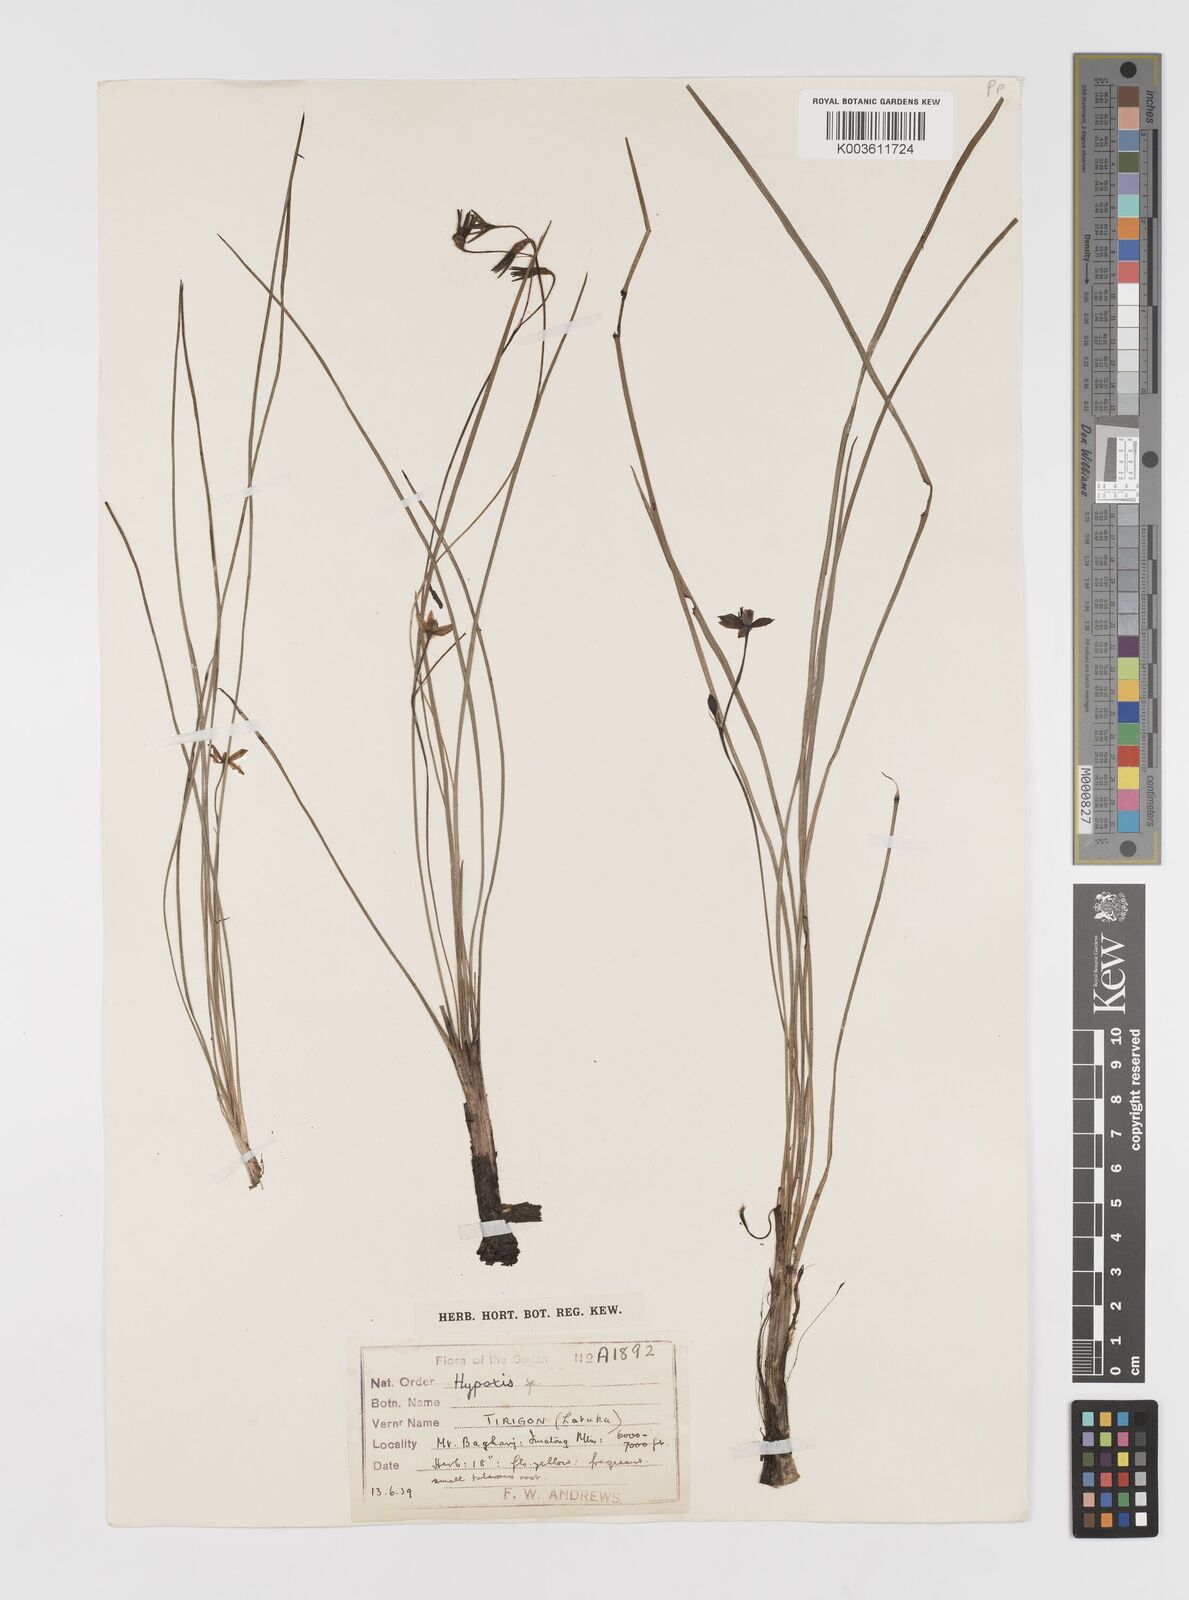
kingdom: Plantae
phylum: Tracheophyta
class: Liliopsida
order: Asparagales
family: Hypoxidaceae
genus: Hypoxis
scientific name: Hypoxis
